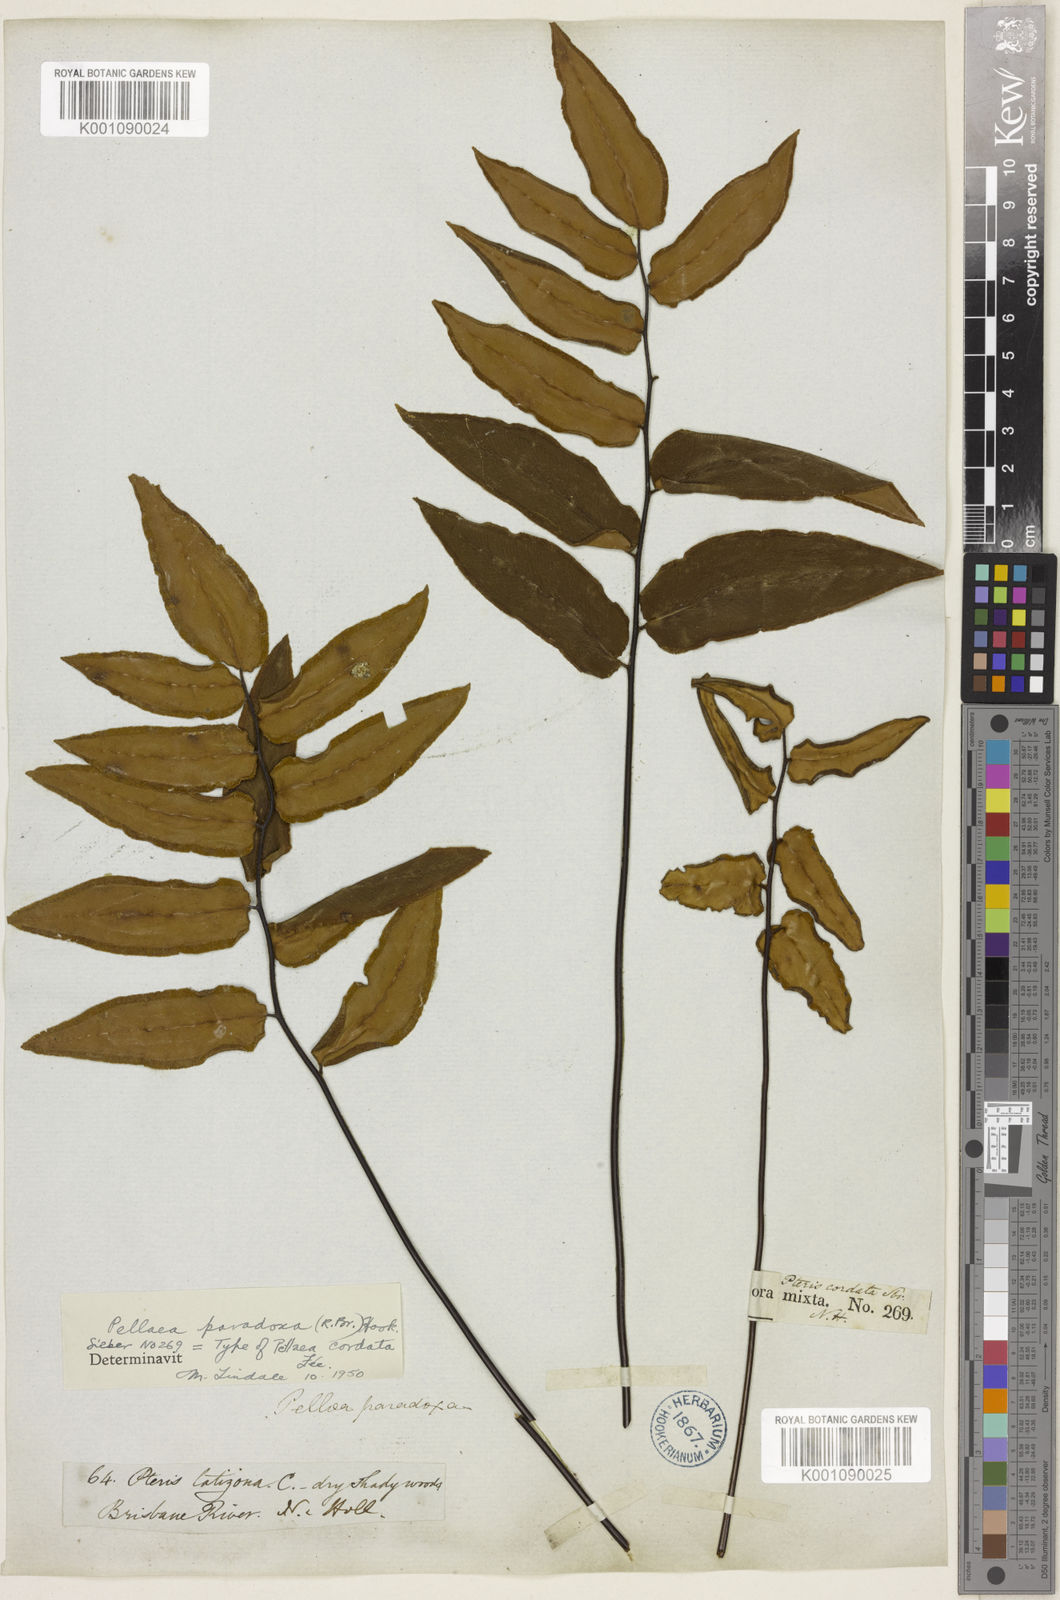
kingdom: Plantae
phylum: Tracheophyta
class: Polypodiopsida
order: Polypodiales
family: Pteridaceae
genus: Pellaea
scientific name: Pellaea paradoxa
